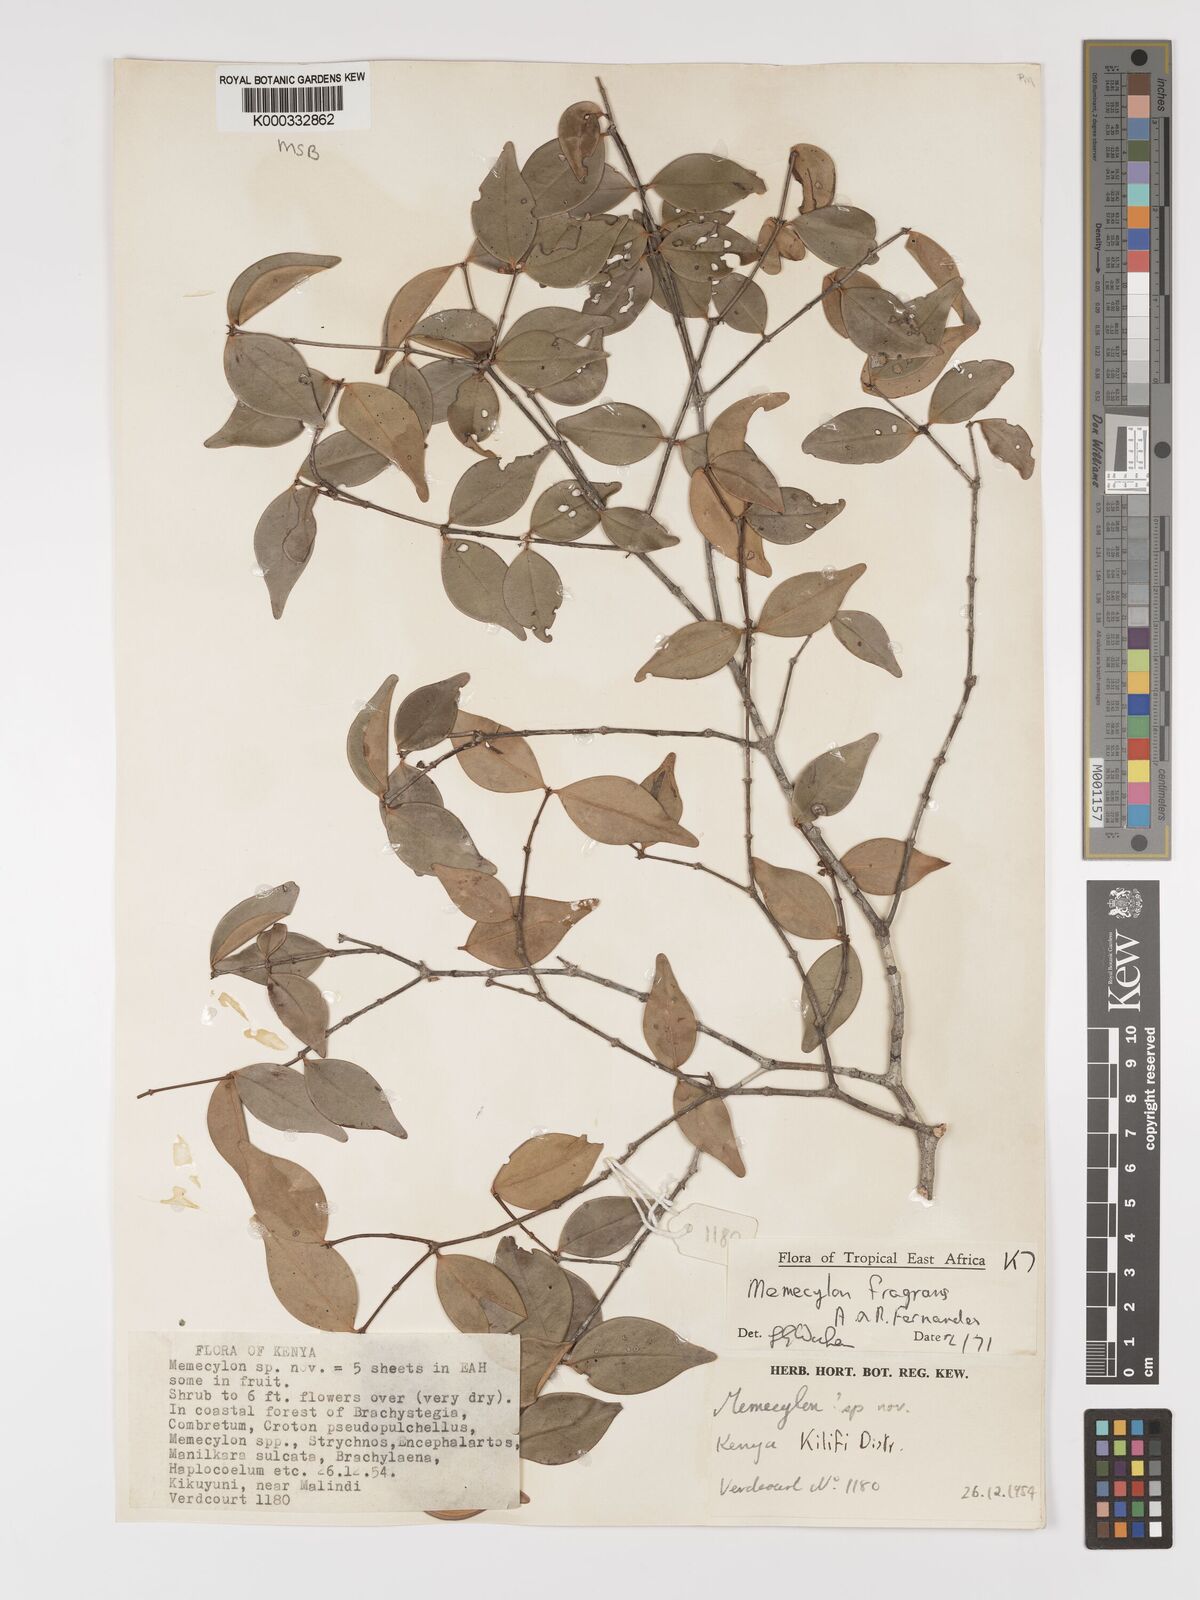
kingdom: Plantae
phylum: Tracheophyta
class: Magnoliopsida
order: Myrtales
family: Melastomataceae
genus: Memecylon
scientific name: Memecylon fragrans
